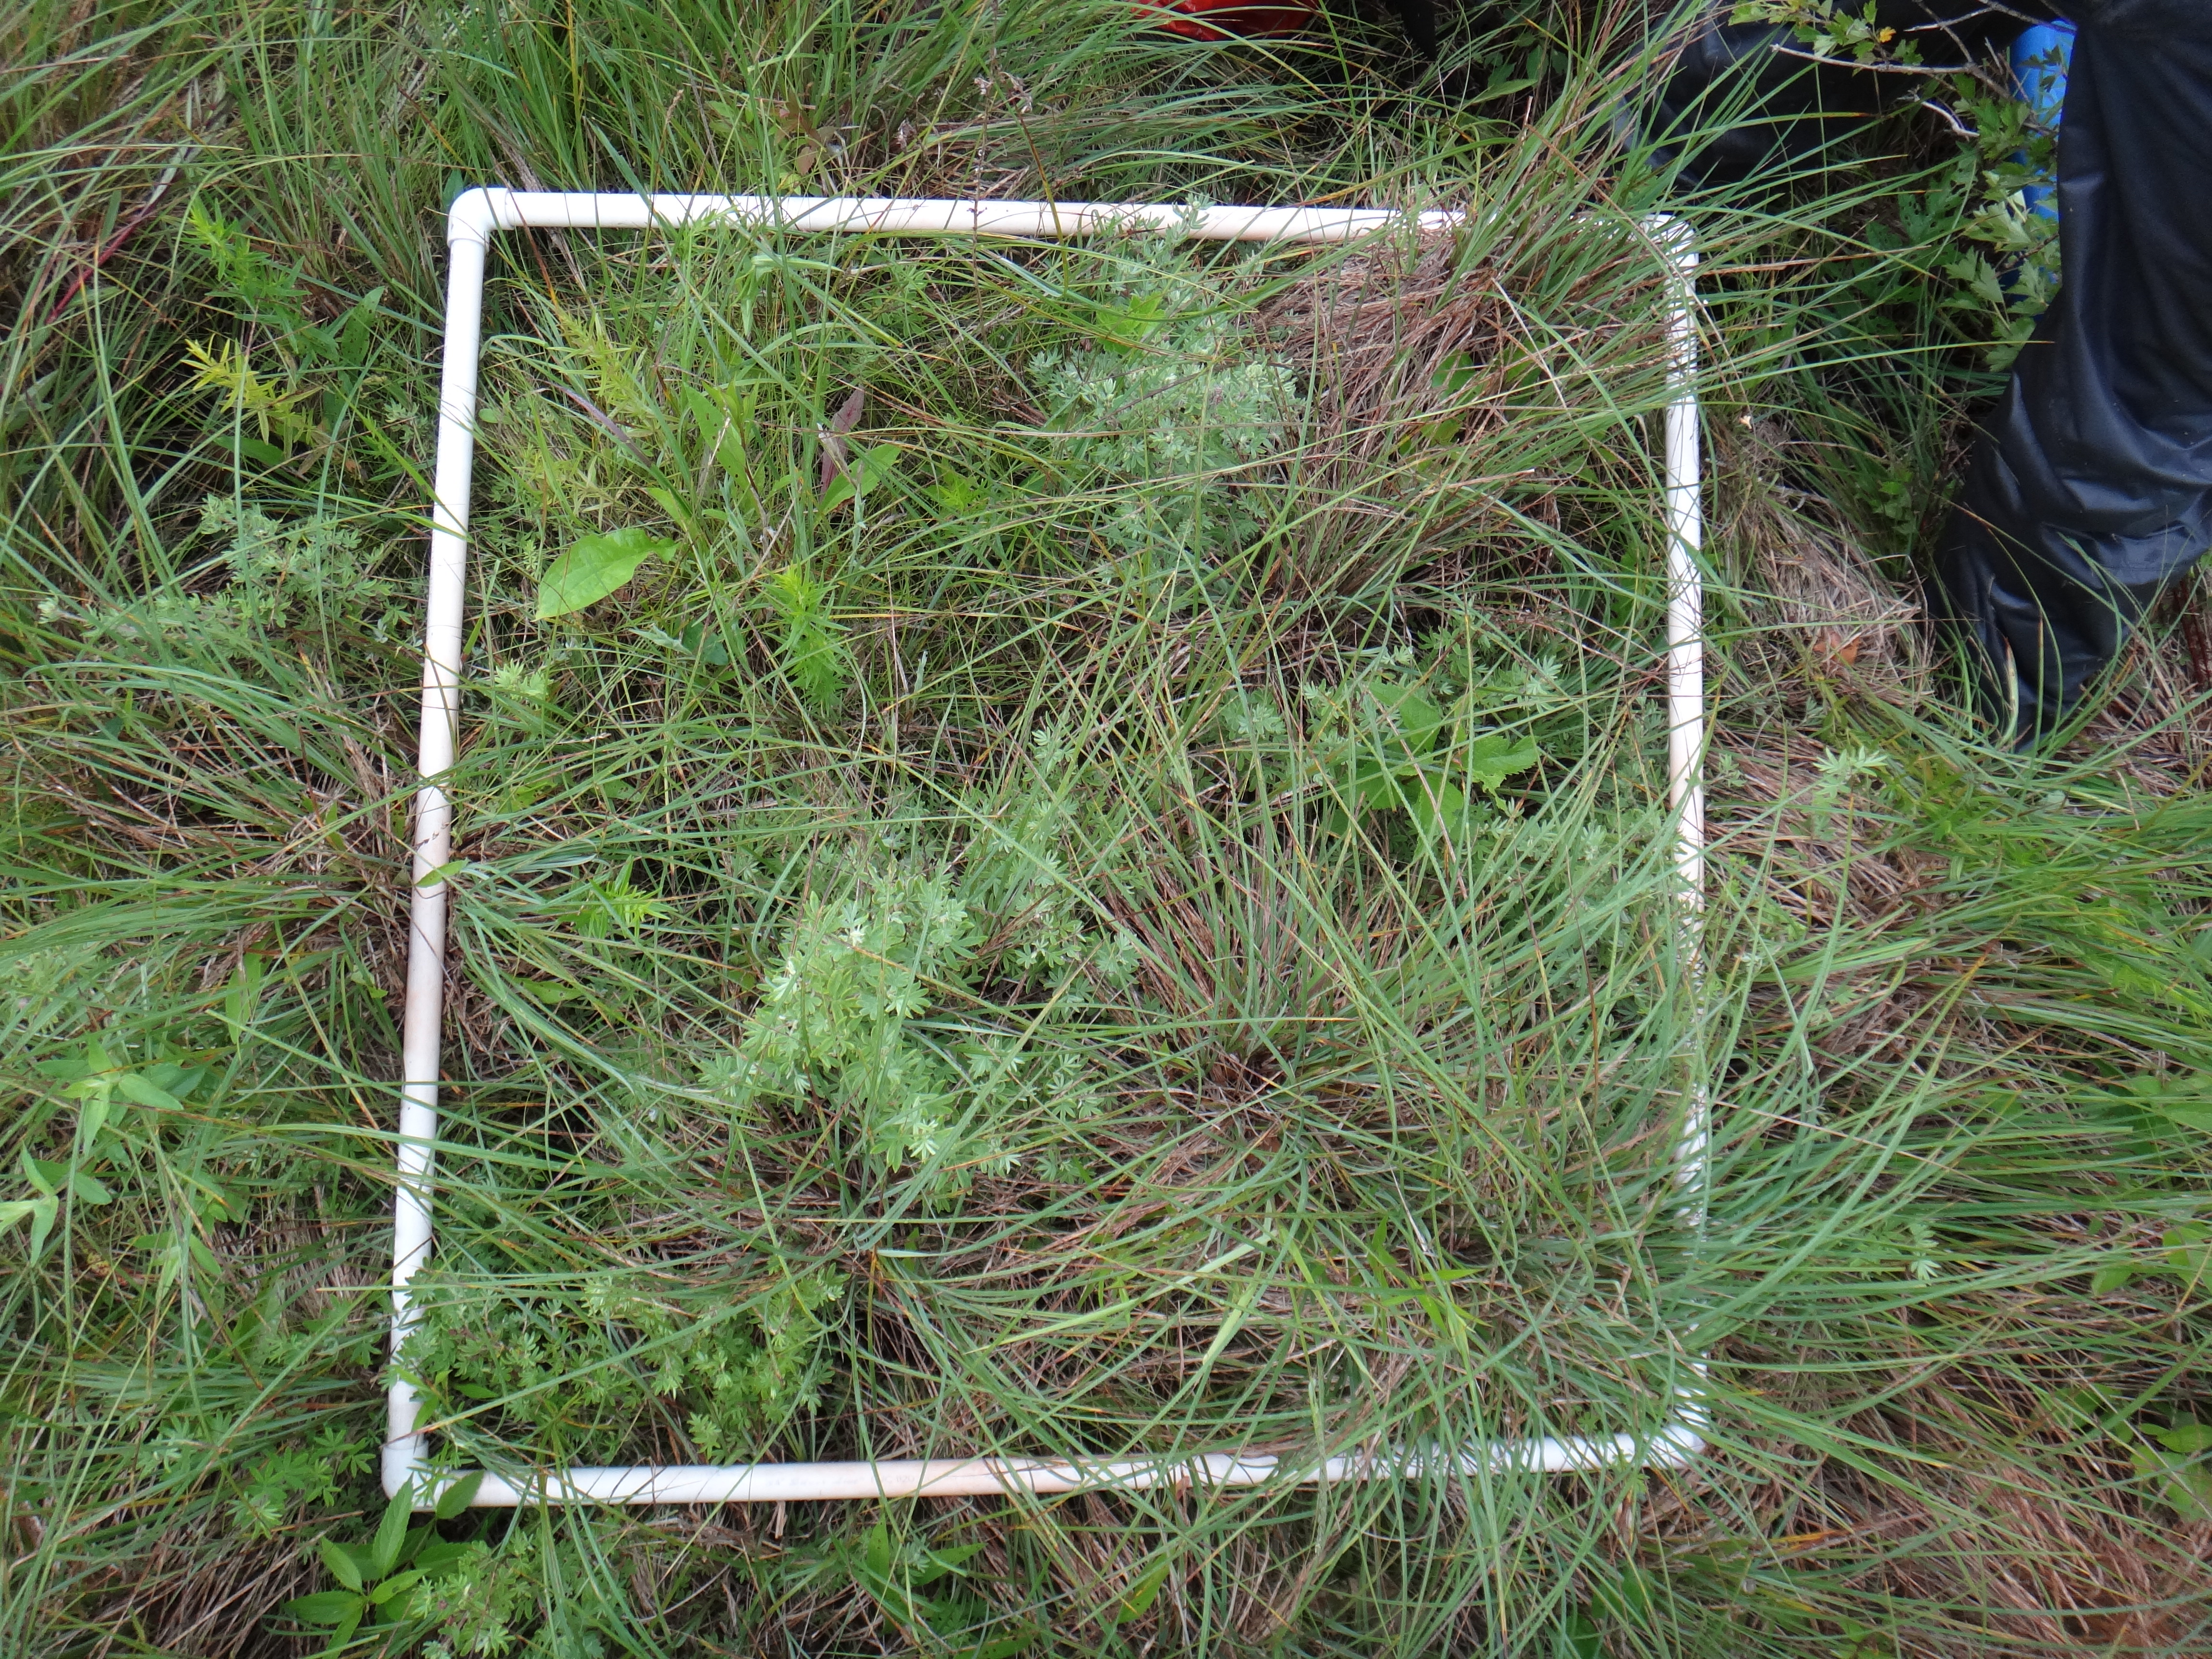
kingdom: Plantae
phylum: Tracheophyta
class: Liliopsida
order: Poales
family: Cyperaceae
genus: Carex
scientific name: Carex lasiocarpa
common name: Slender sedge
